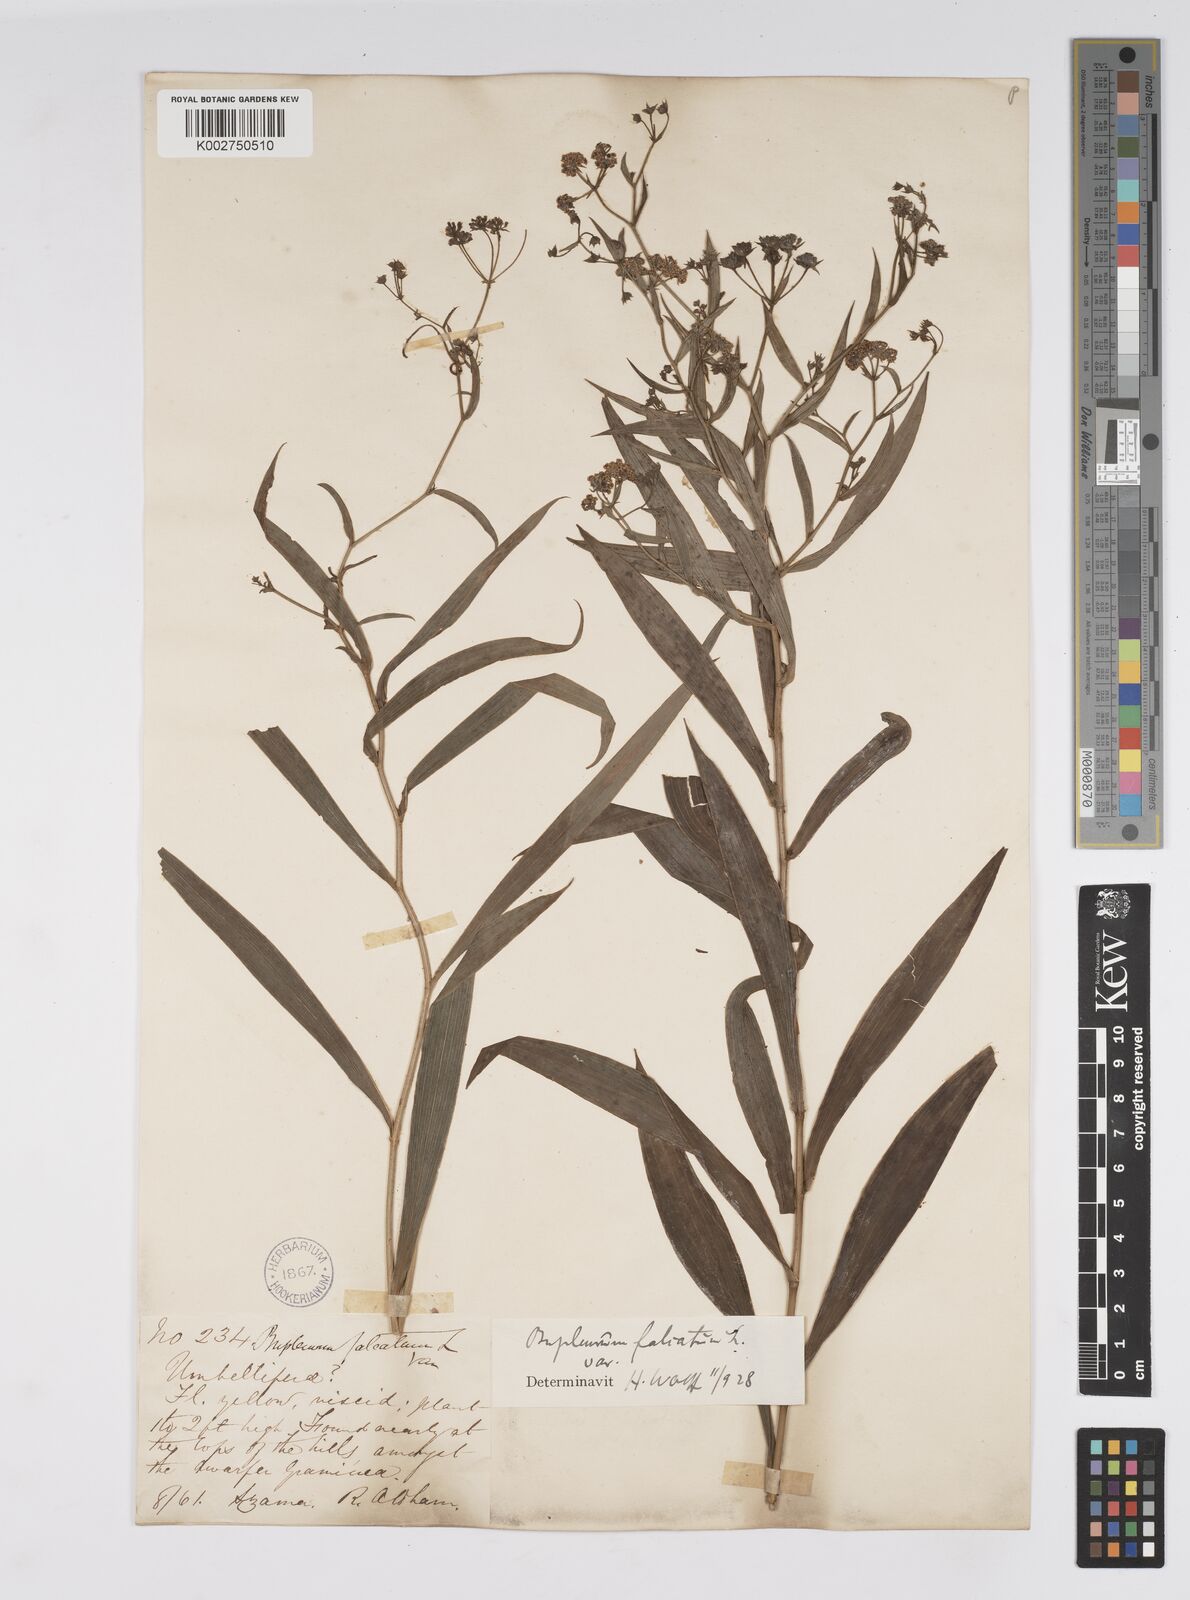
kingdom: Plantae
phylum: Tracheophyta
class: Magnoliopsida
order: Apiales
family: Apiaceae
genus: Bupleurum
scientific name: Bupleurum falcatum
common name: Sickle-leaved hare's-ear
